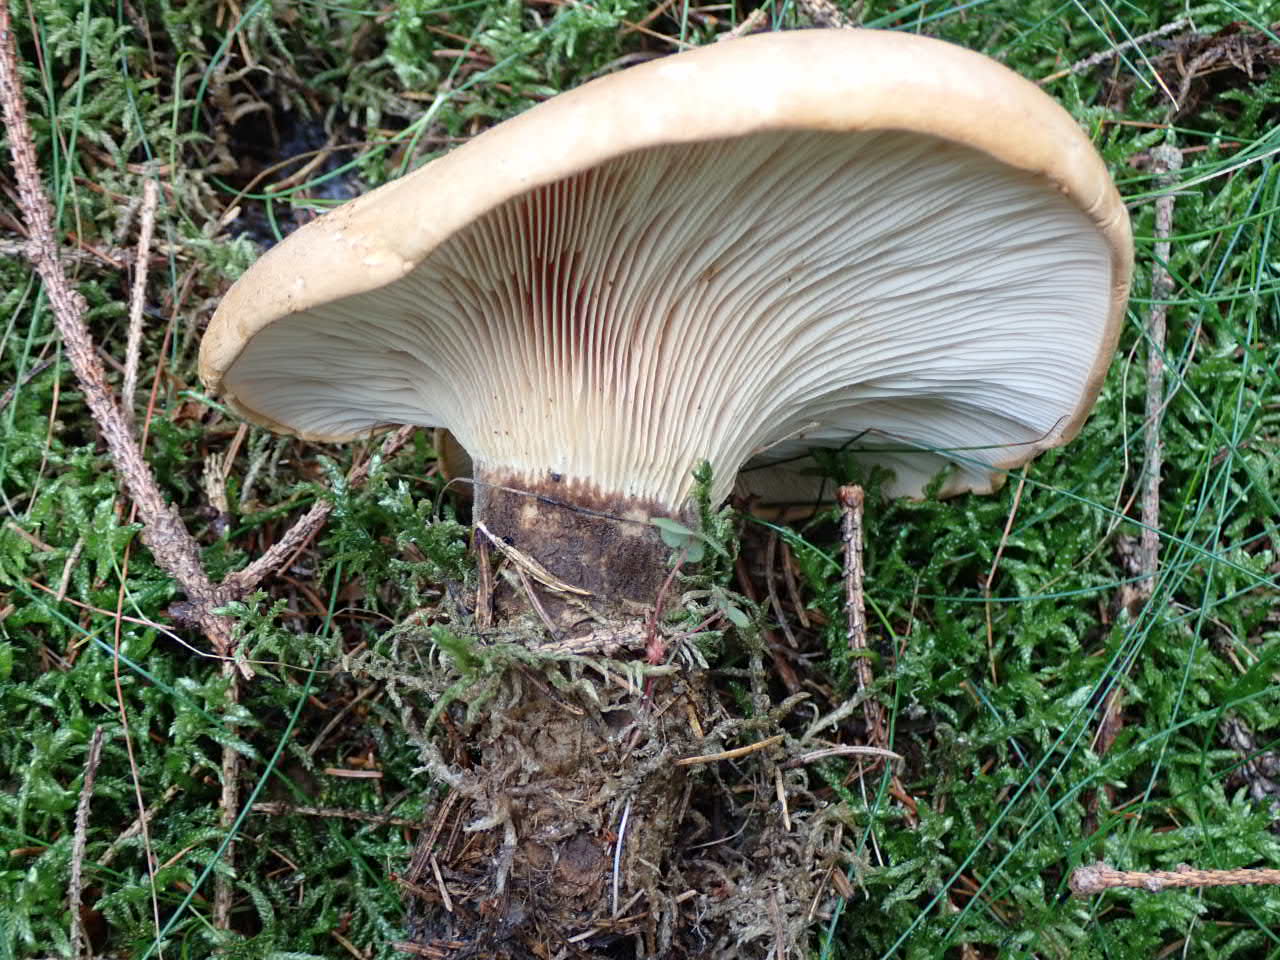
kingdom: Fungi
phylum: Basidiomycota
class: Agaricomycetes
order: Boletales
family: Tapinellaceae
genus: Tapinella
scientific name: Tapinella atrotomentosa
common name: sortfiltet viftesvamp
